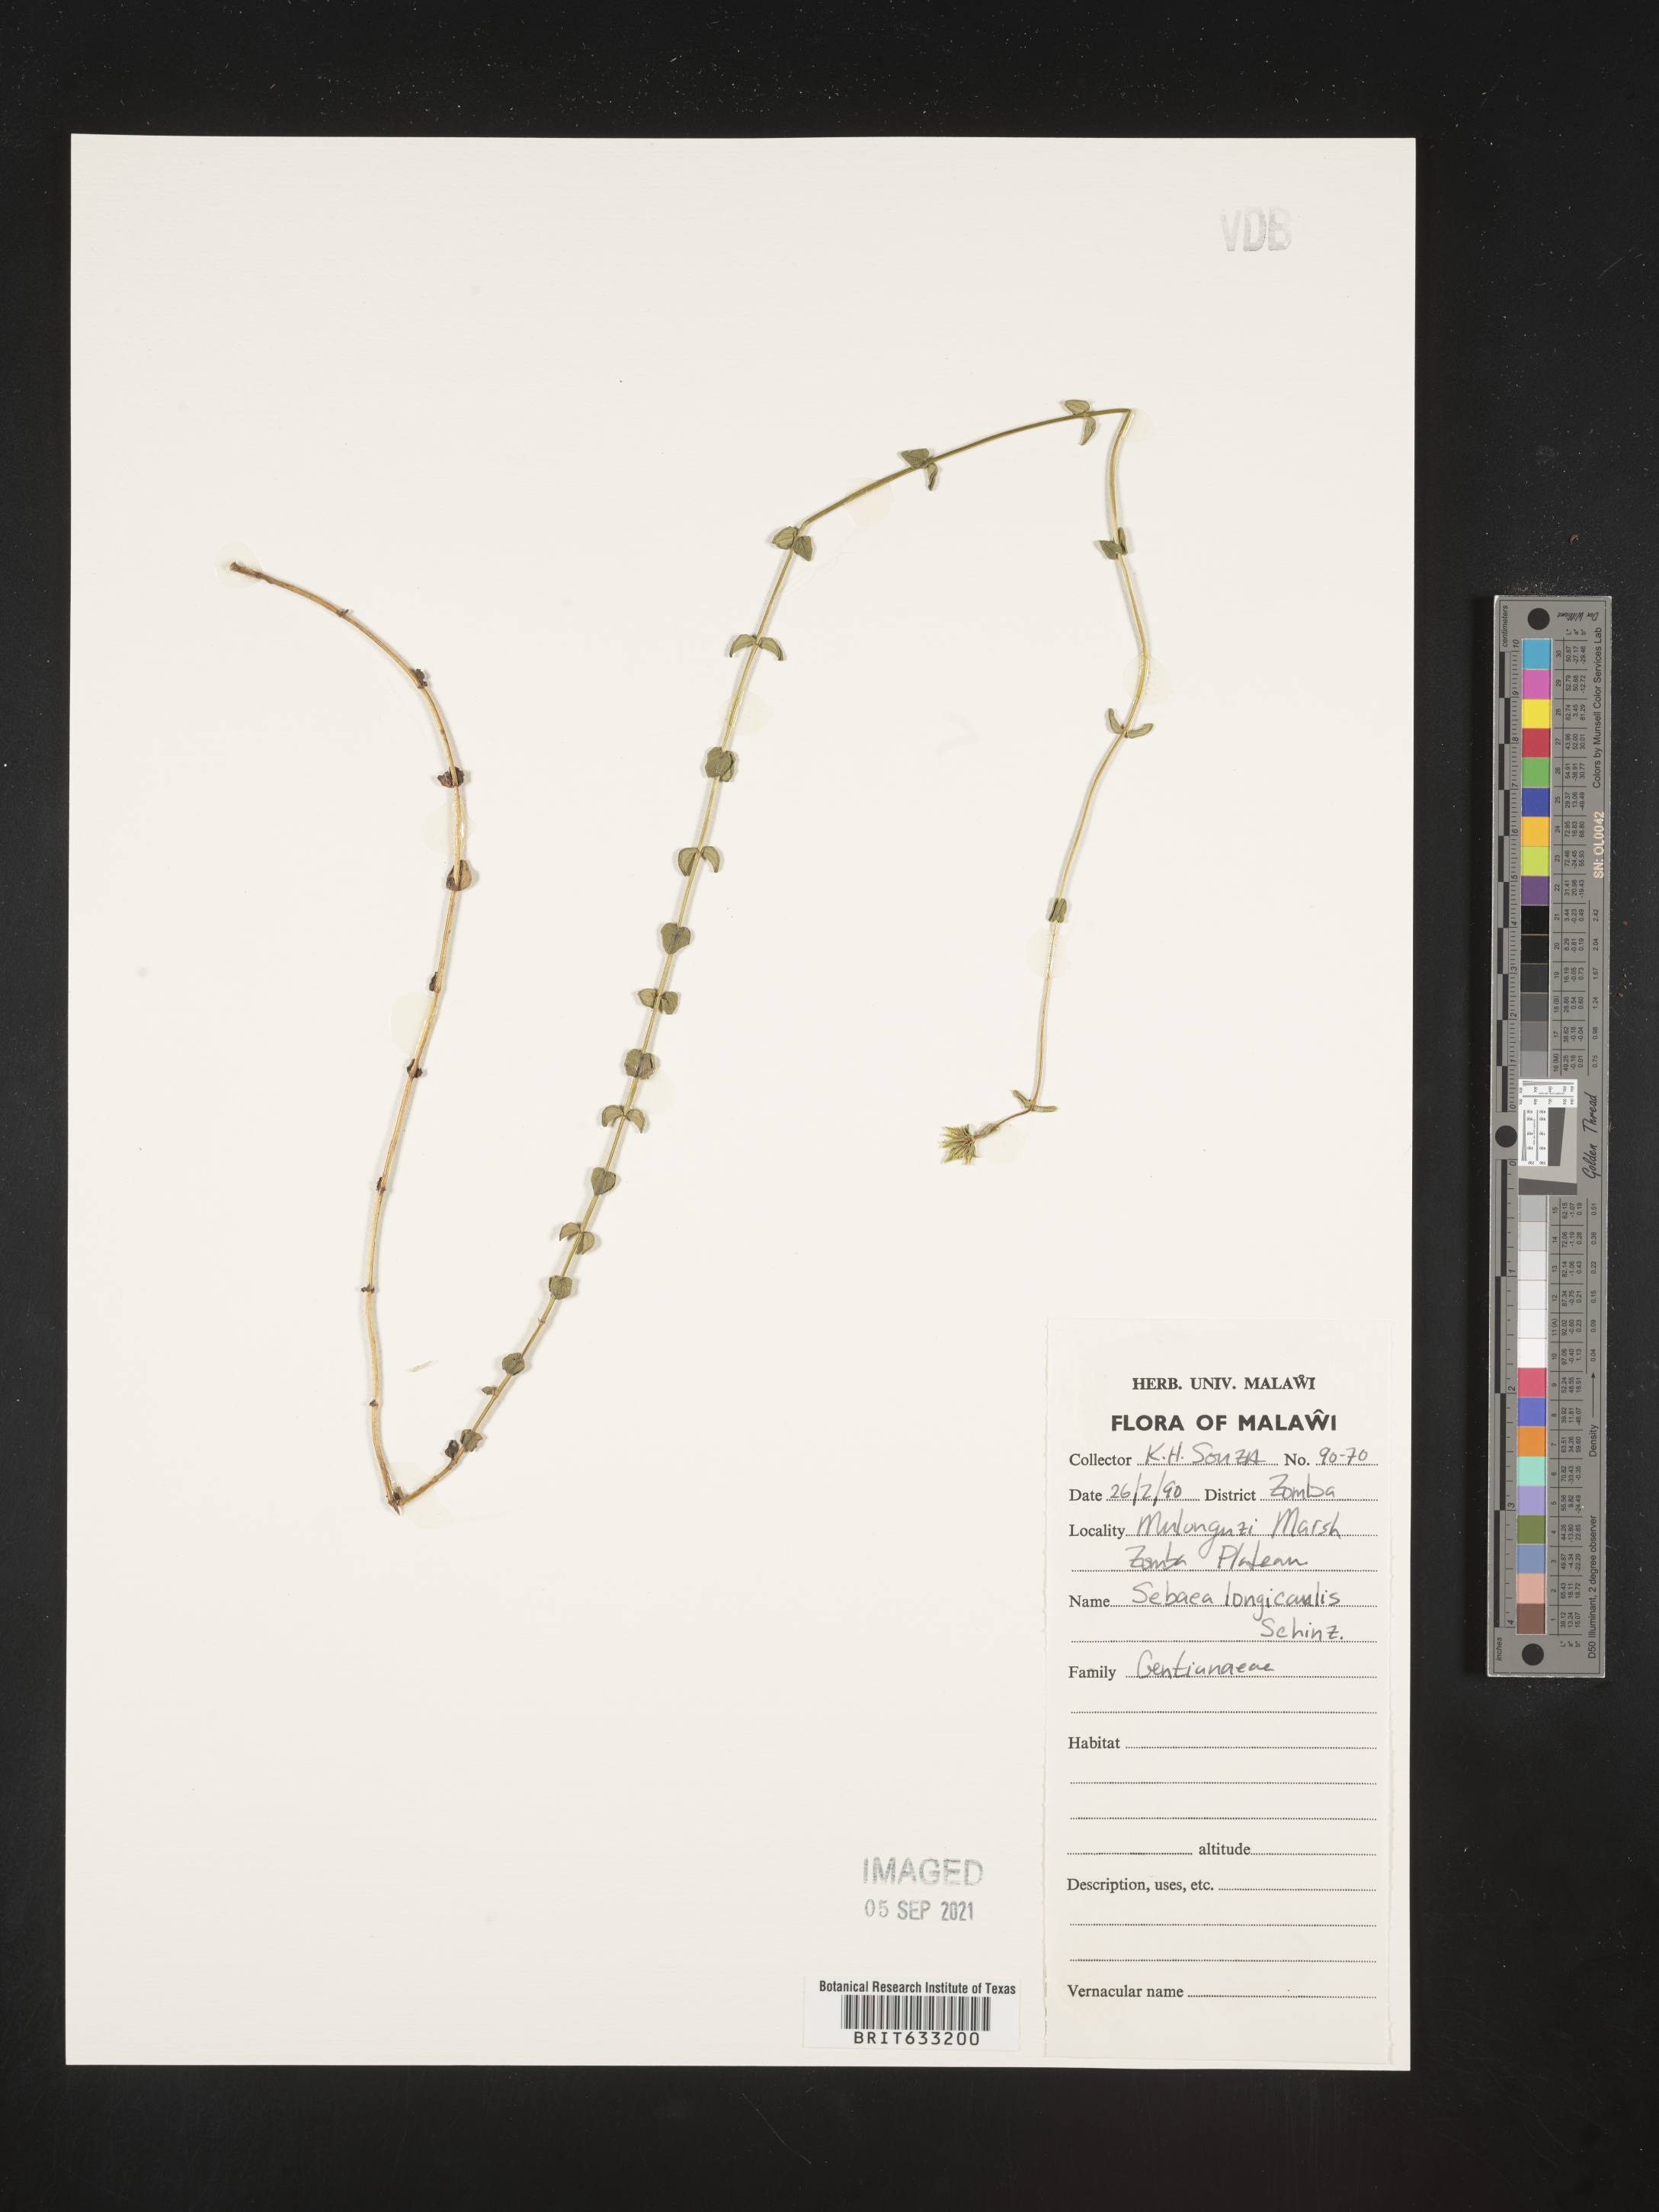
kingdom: Plantae
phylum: Tracheophyta
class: Magnoliopsida
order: Gentianales
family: Gentianaceae
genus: Sebaea
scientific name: Sebaea longicaulis
